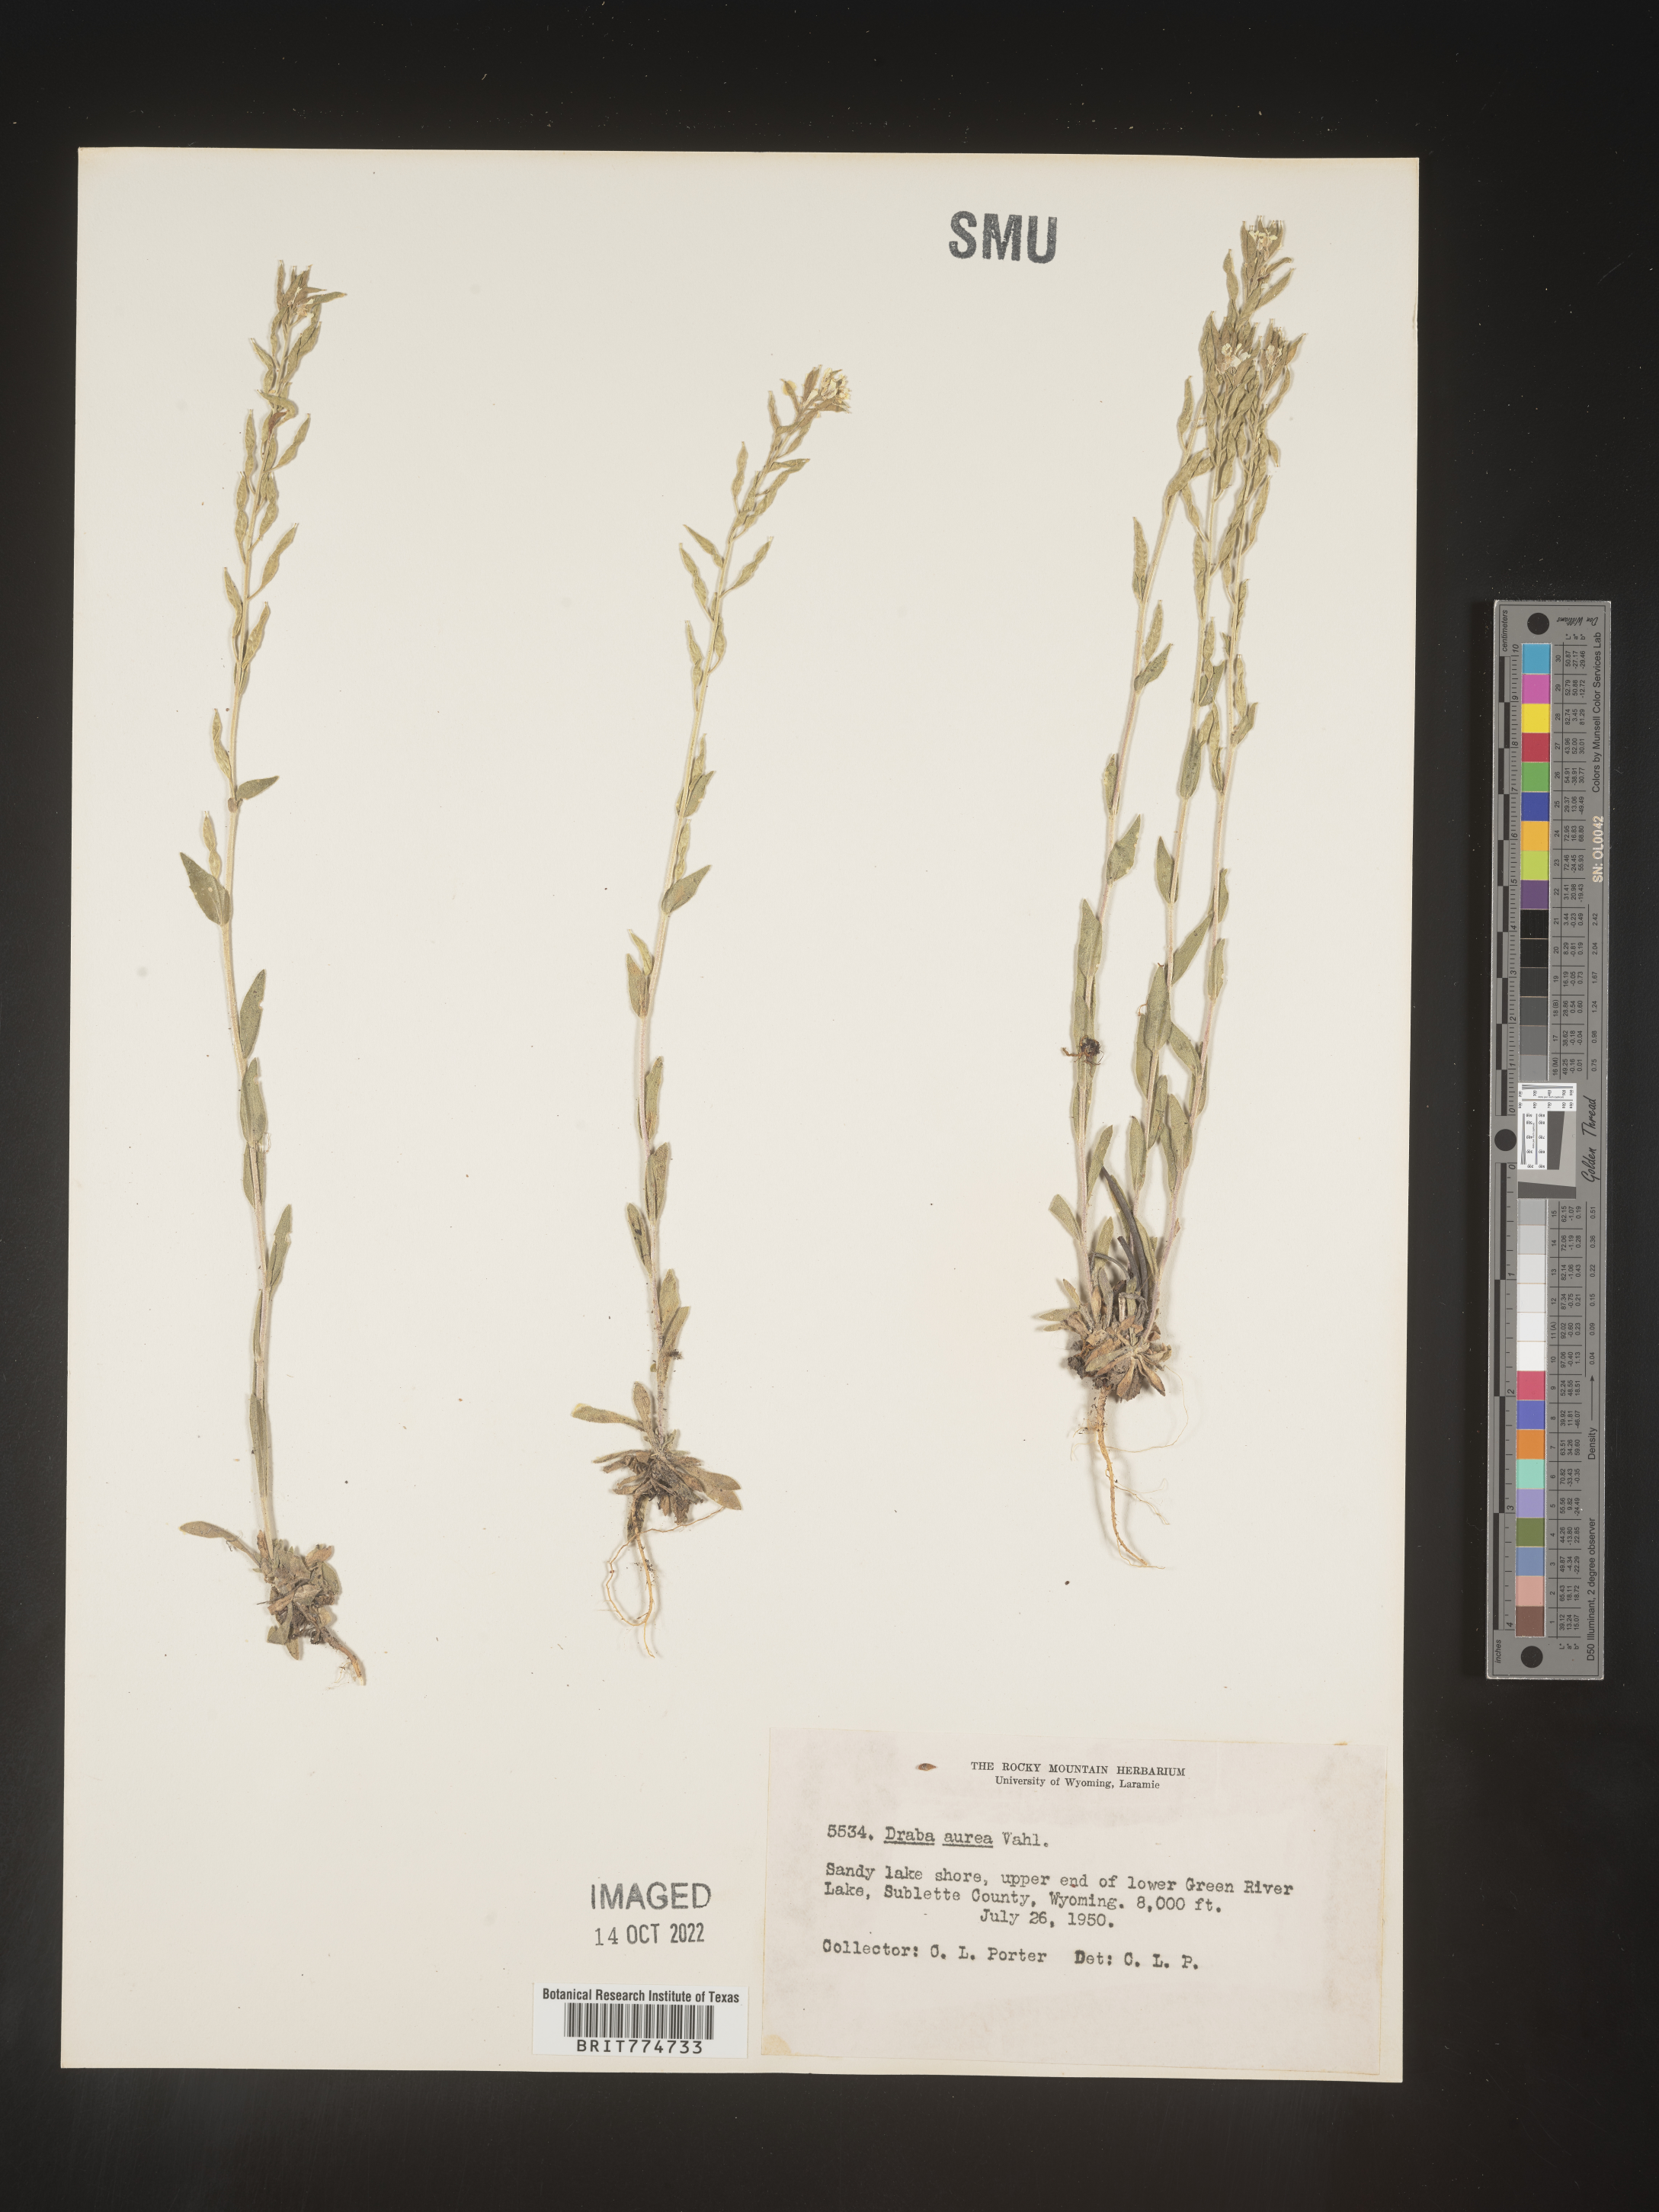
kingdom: Plantae
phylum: Tracheophyta
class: Magnoliopsida
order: Brassicales
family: Brassicaceae
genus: Draba
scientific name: Draba
